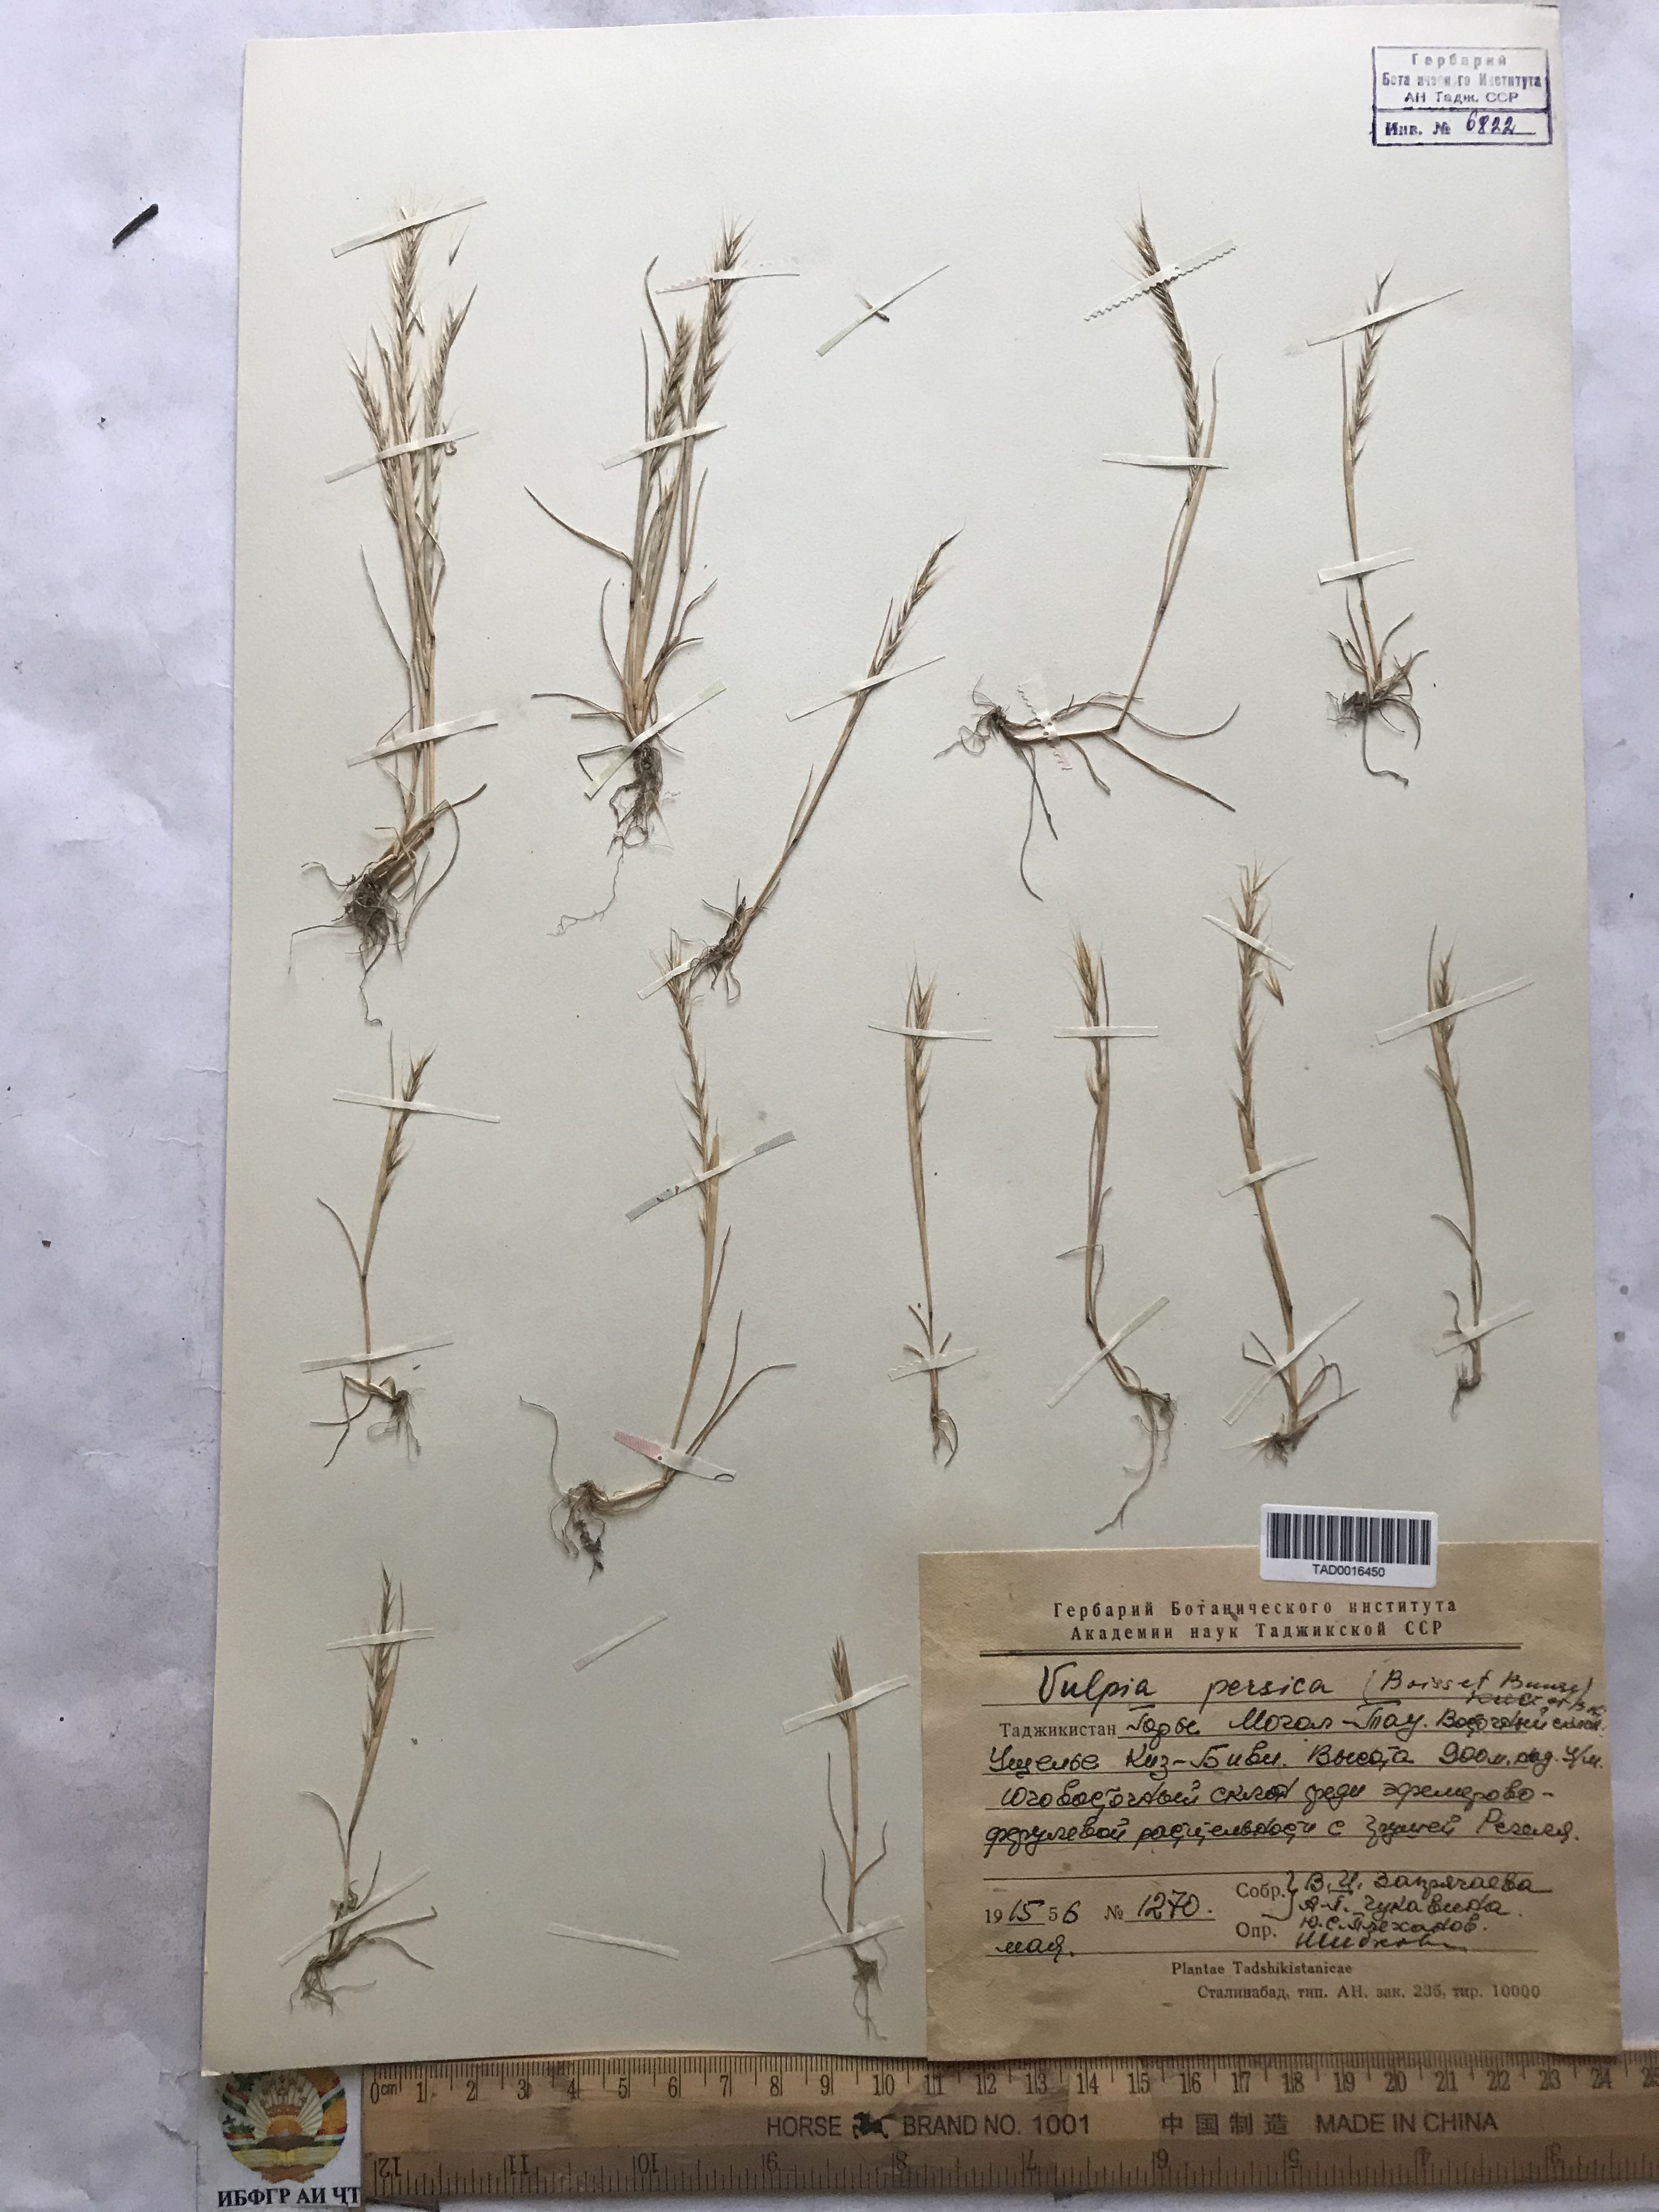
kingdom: Plantae
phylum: Tracheophyta
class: Liliopsida
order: Poales
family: Poaceae
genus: Festuca
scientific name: Festuca Vulpia persica
